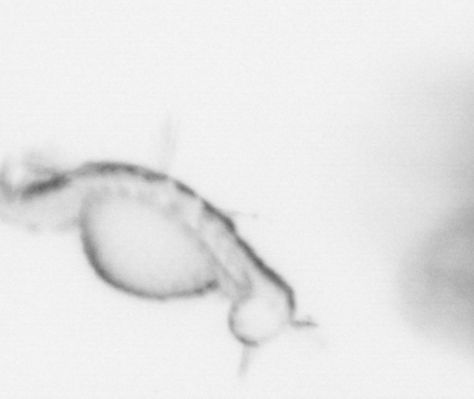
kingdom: Animalia
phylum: Annelida
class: Polychaeta
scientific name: Polychaeta
